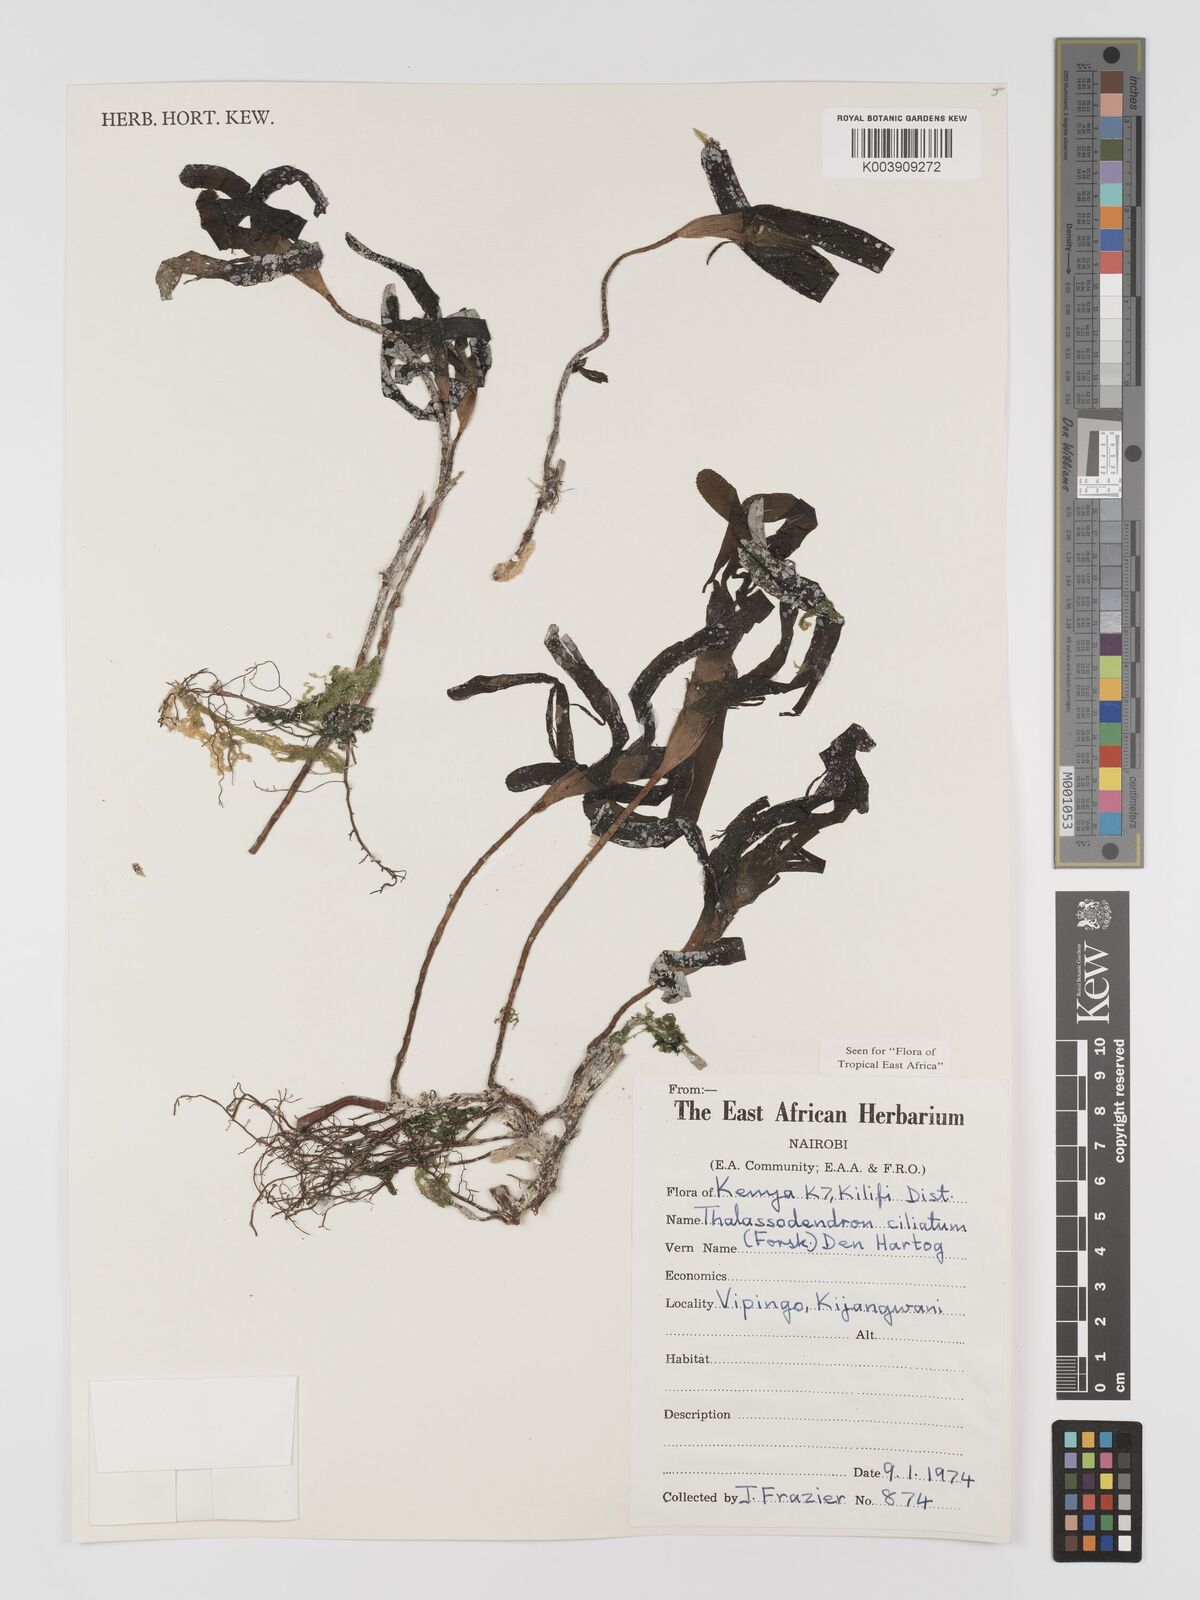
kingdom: Plantae
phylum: Tracheophyta
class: Liliopsida
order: Alismatales
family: Cymodoceaceae
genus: Thalassodendron
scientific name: Thalassodendron ciliatum
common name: Species code: tc
